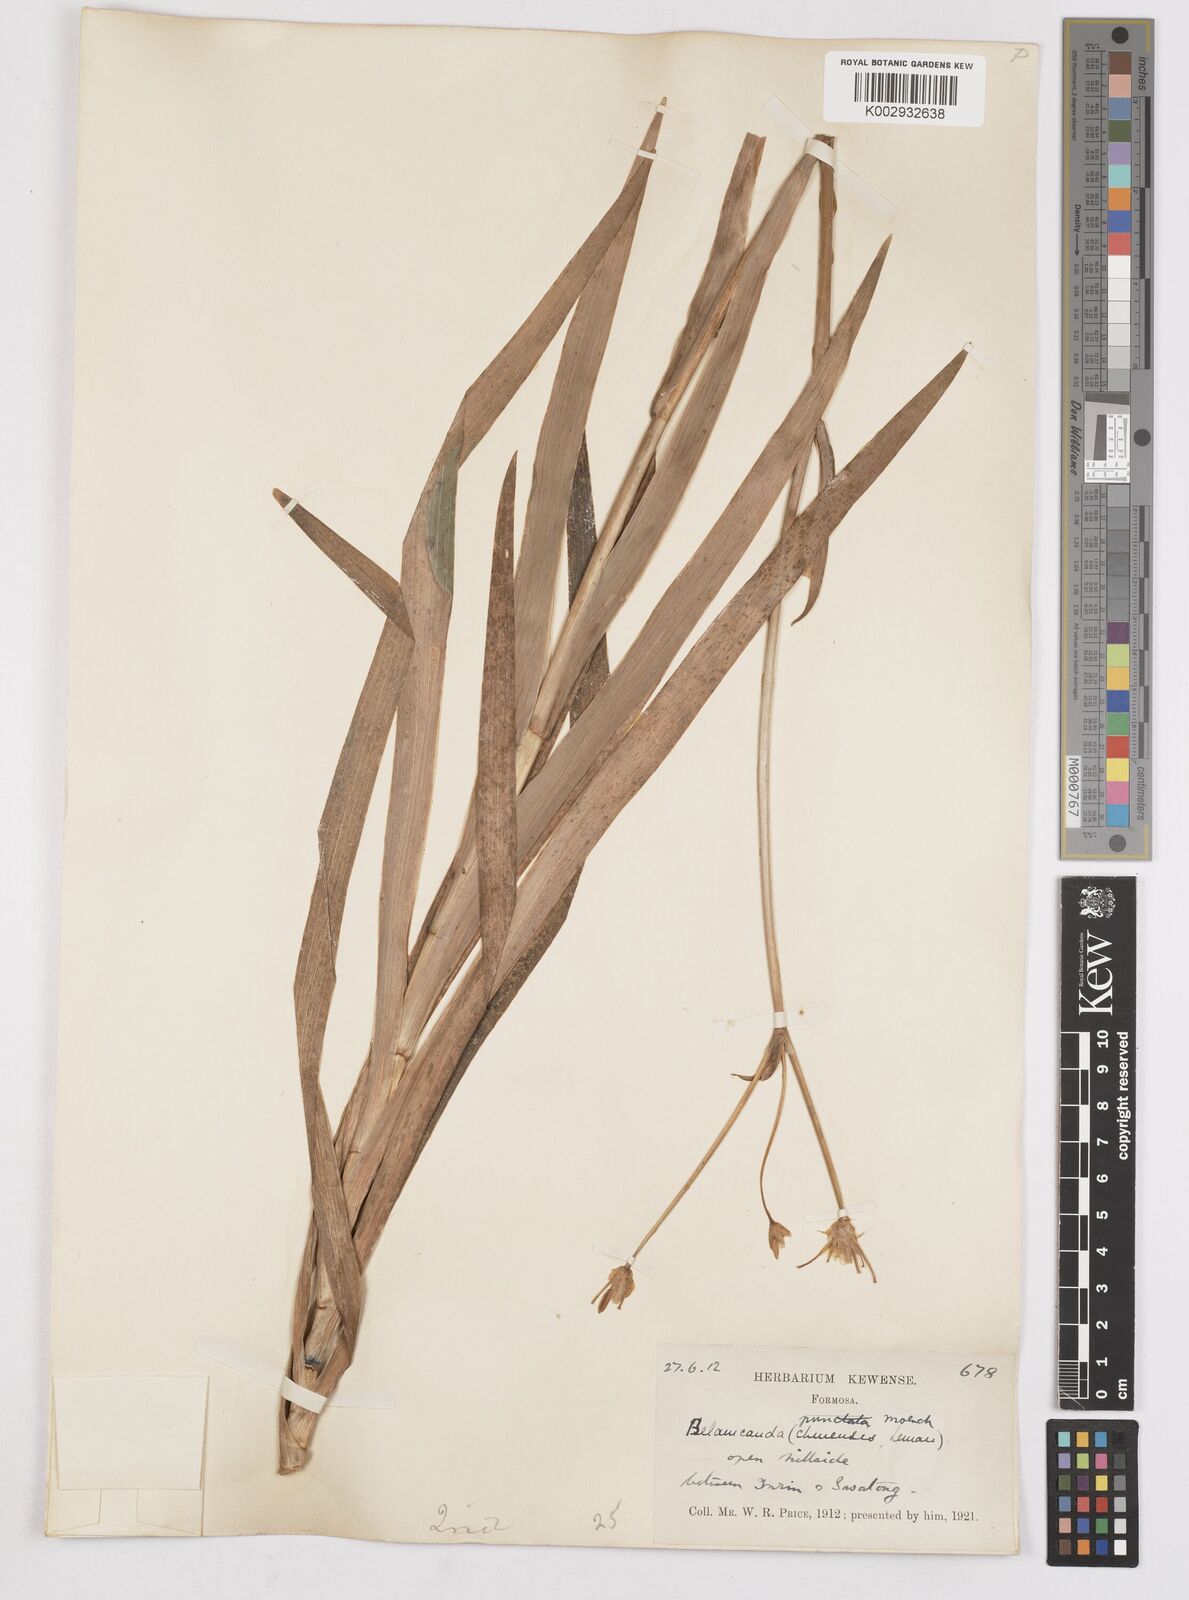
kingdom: Plantae
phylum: Tracheophyta
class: Liliopsida
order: Asparagales
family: Iridaceae
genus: Iris
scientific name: Iris
